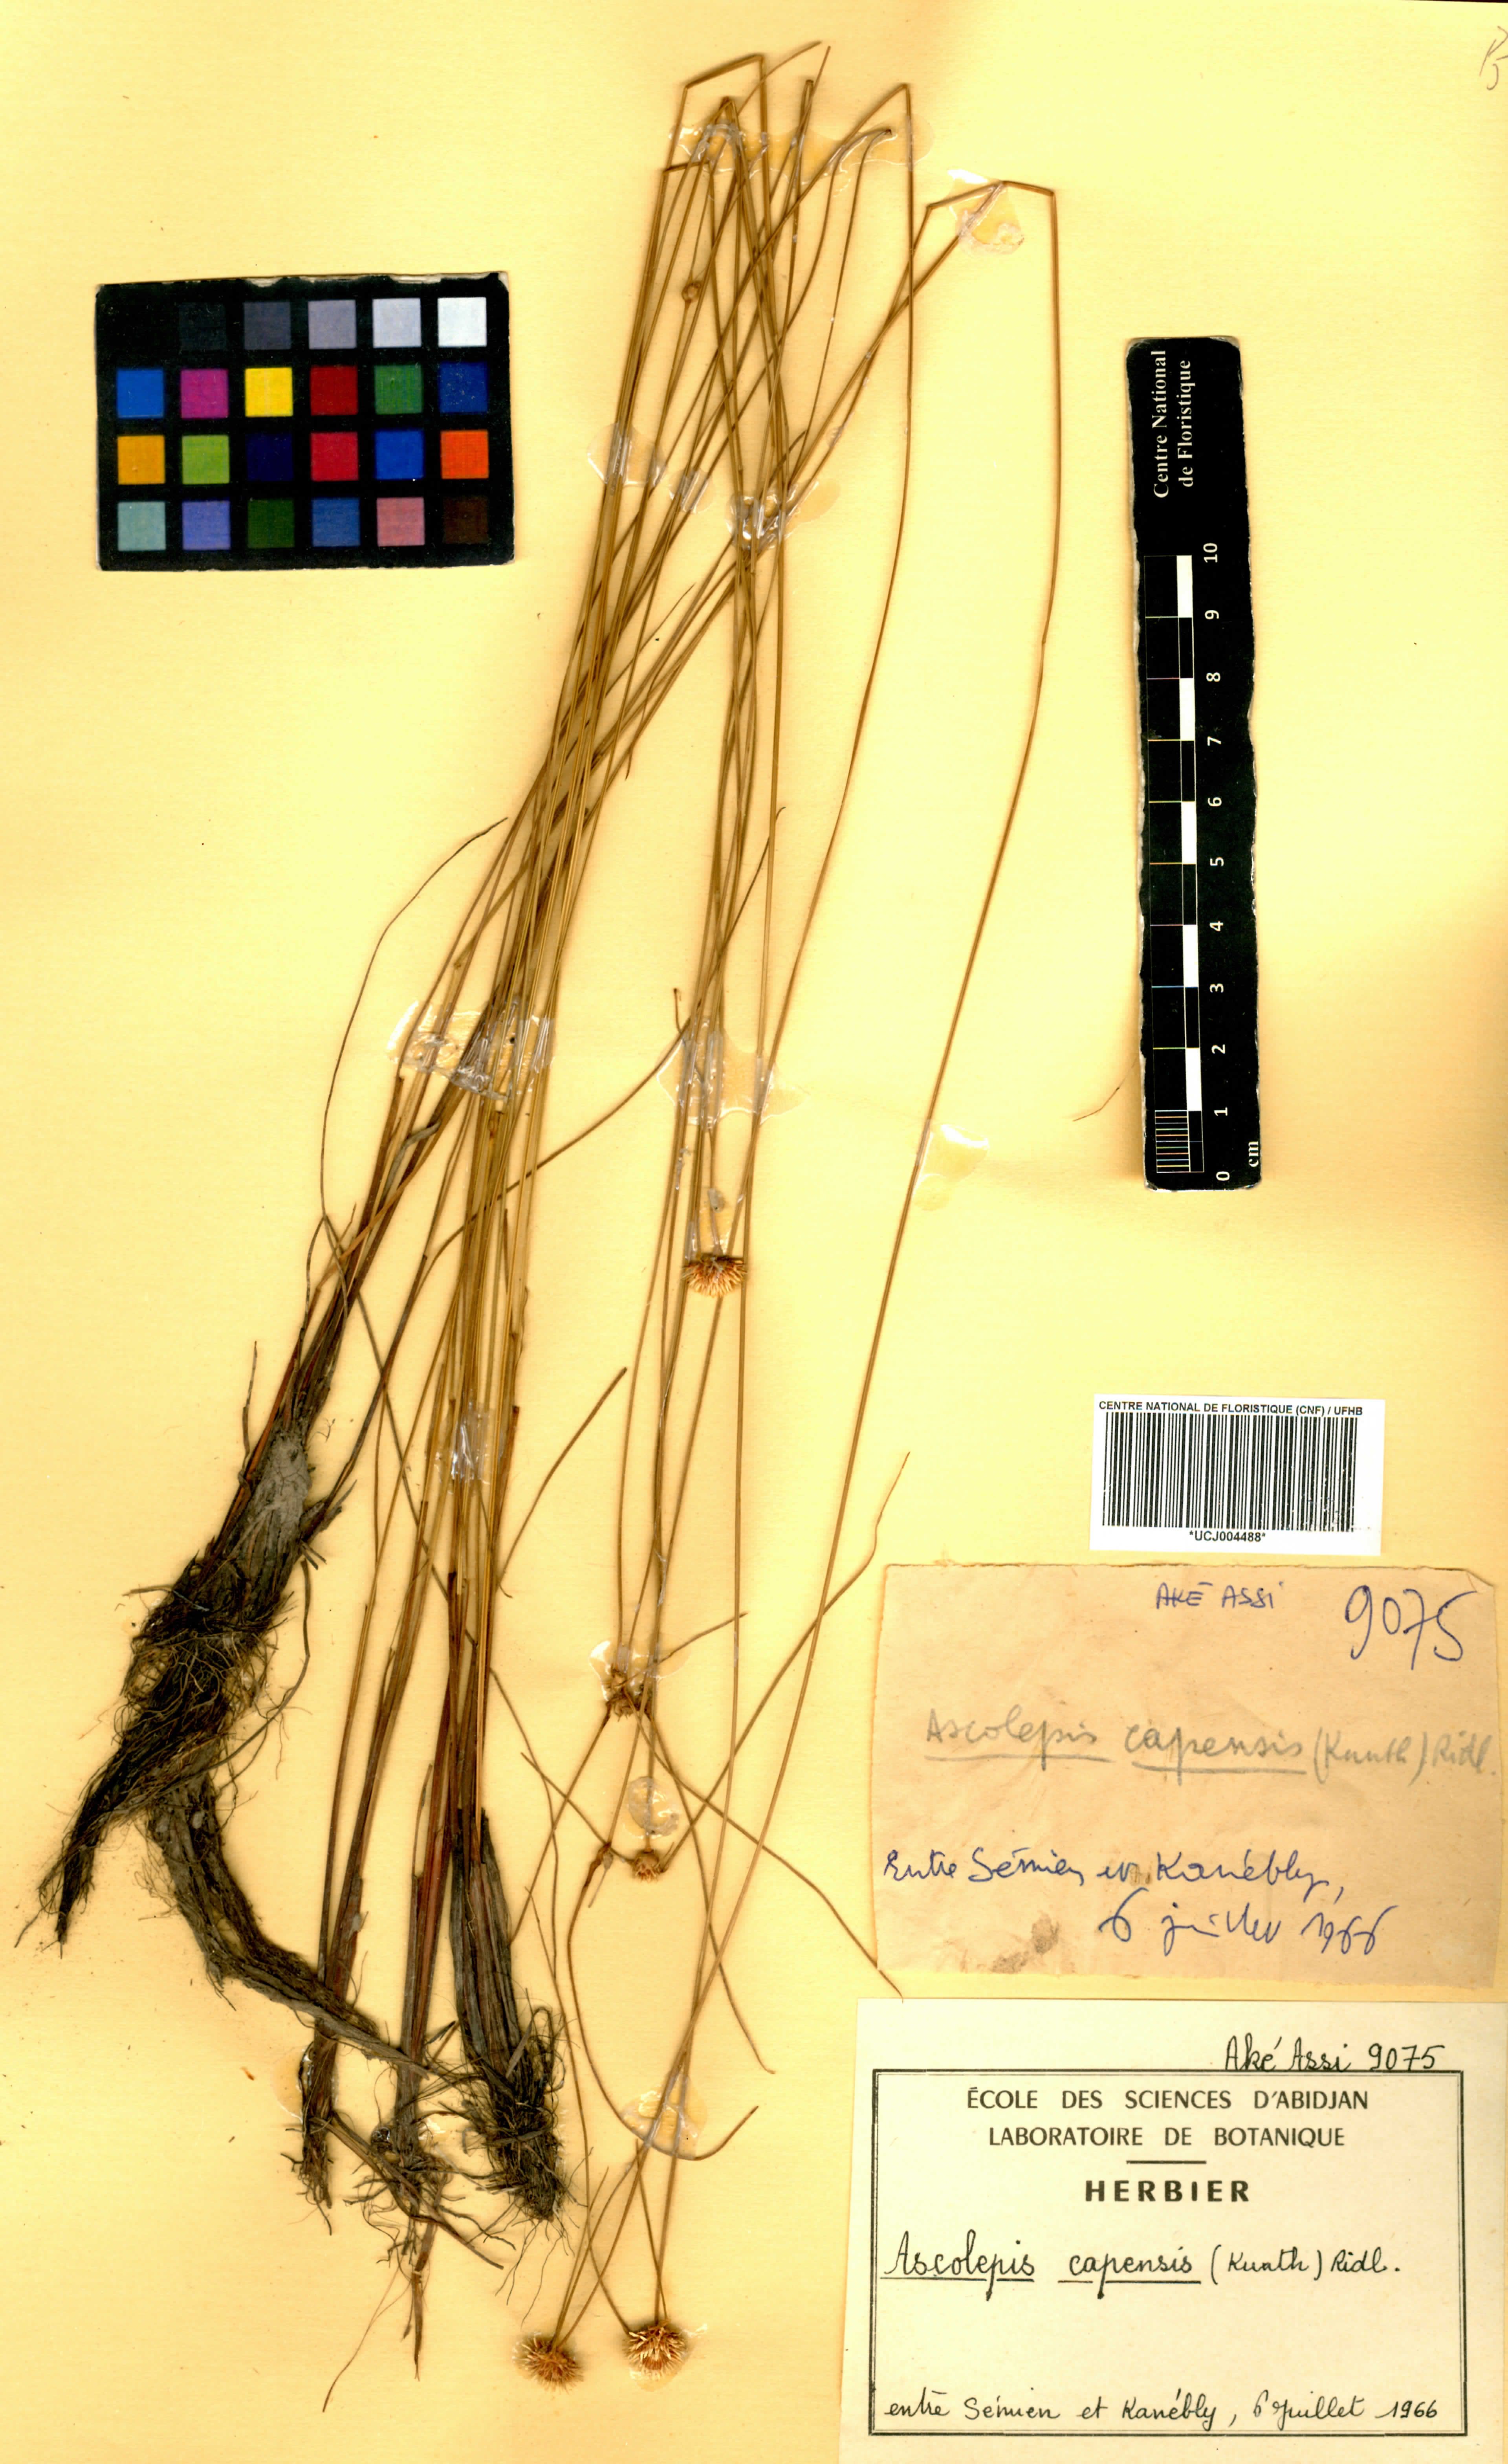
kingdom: Plantae
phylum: Tracheophyta
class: Liliopsida
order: Poales
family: Cyperaceae
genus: Cyperus
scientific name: Cyperus ascocapensis
